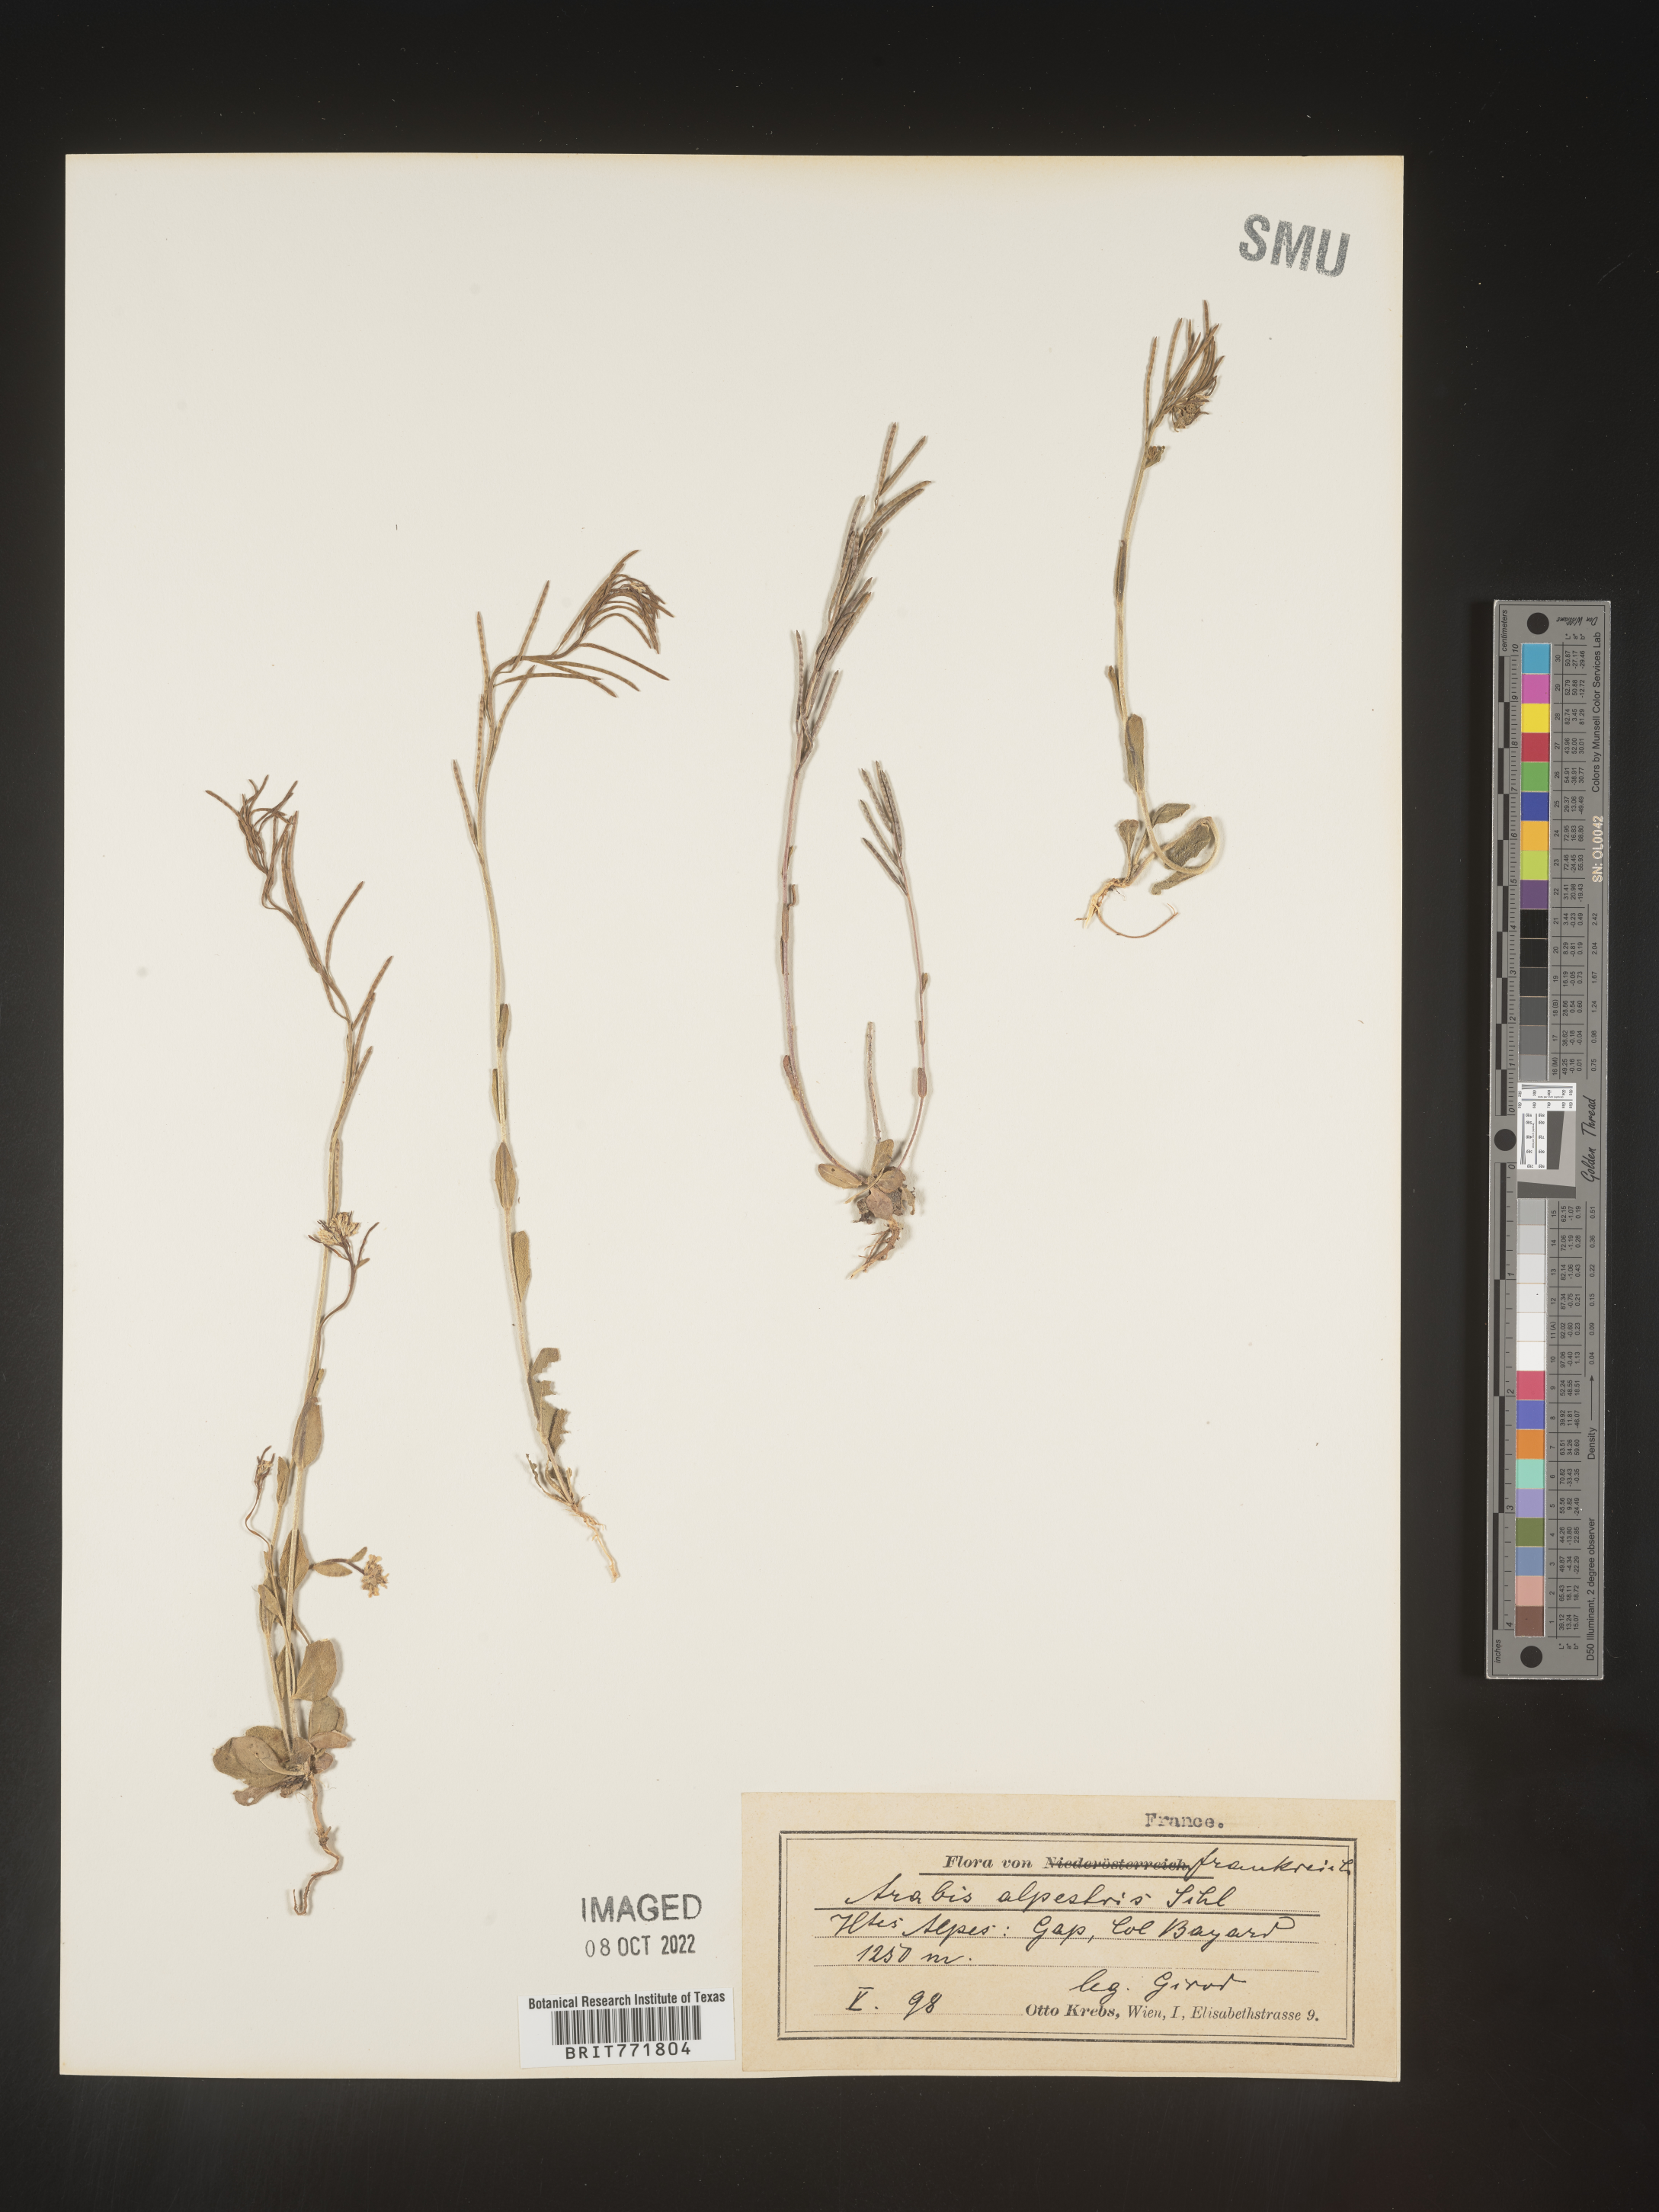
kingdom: Plantae
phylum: Tracheophyta
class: Magnoliopsida
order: Brassicales
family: Brassicaceae
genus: Arabis
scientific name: Arabis
